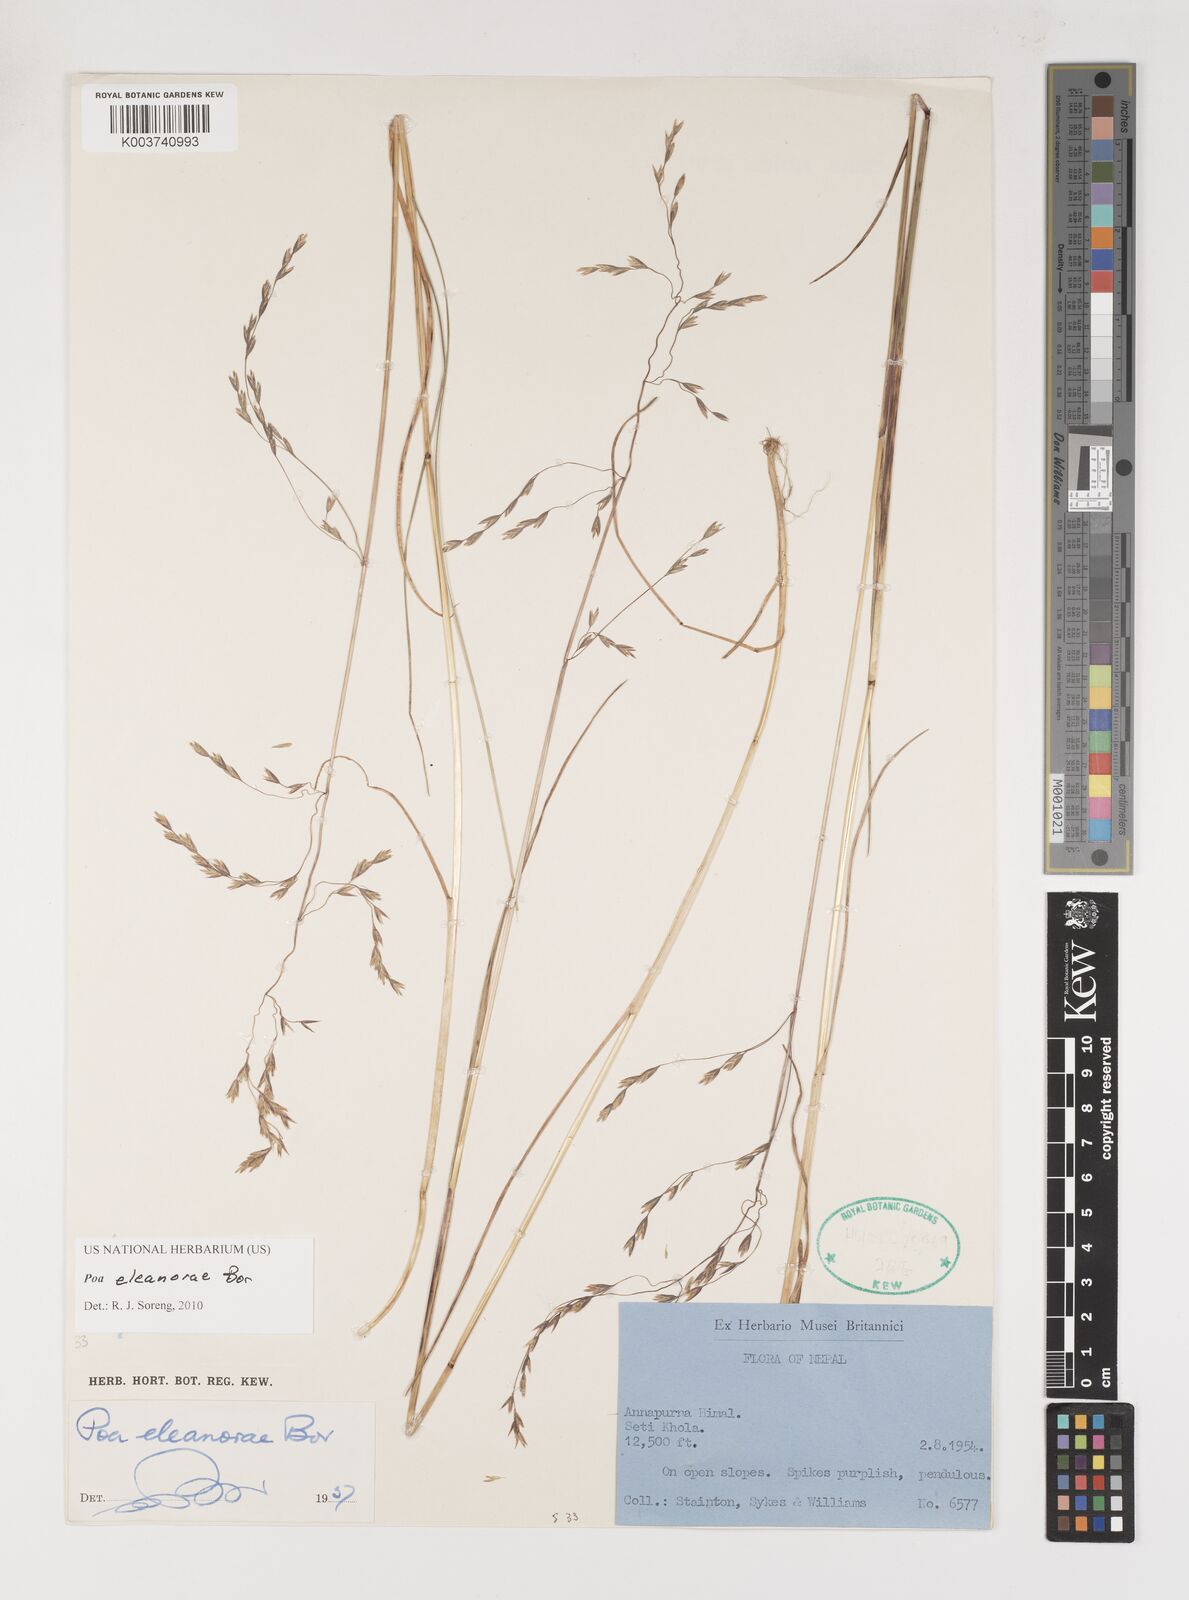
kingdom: Plantae
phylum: Tracheophyta
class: Liliopsida
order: Poales
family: Poaceae
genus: Poa
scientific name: Poa eleanorae
